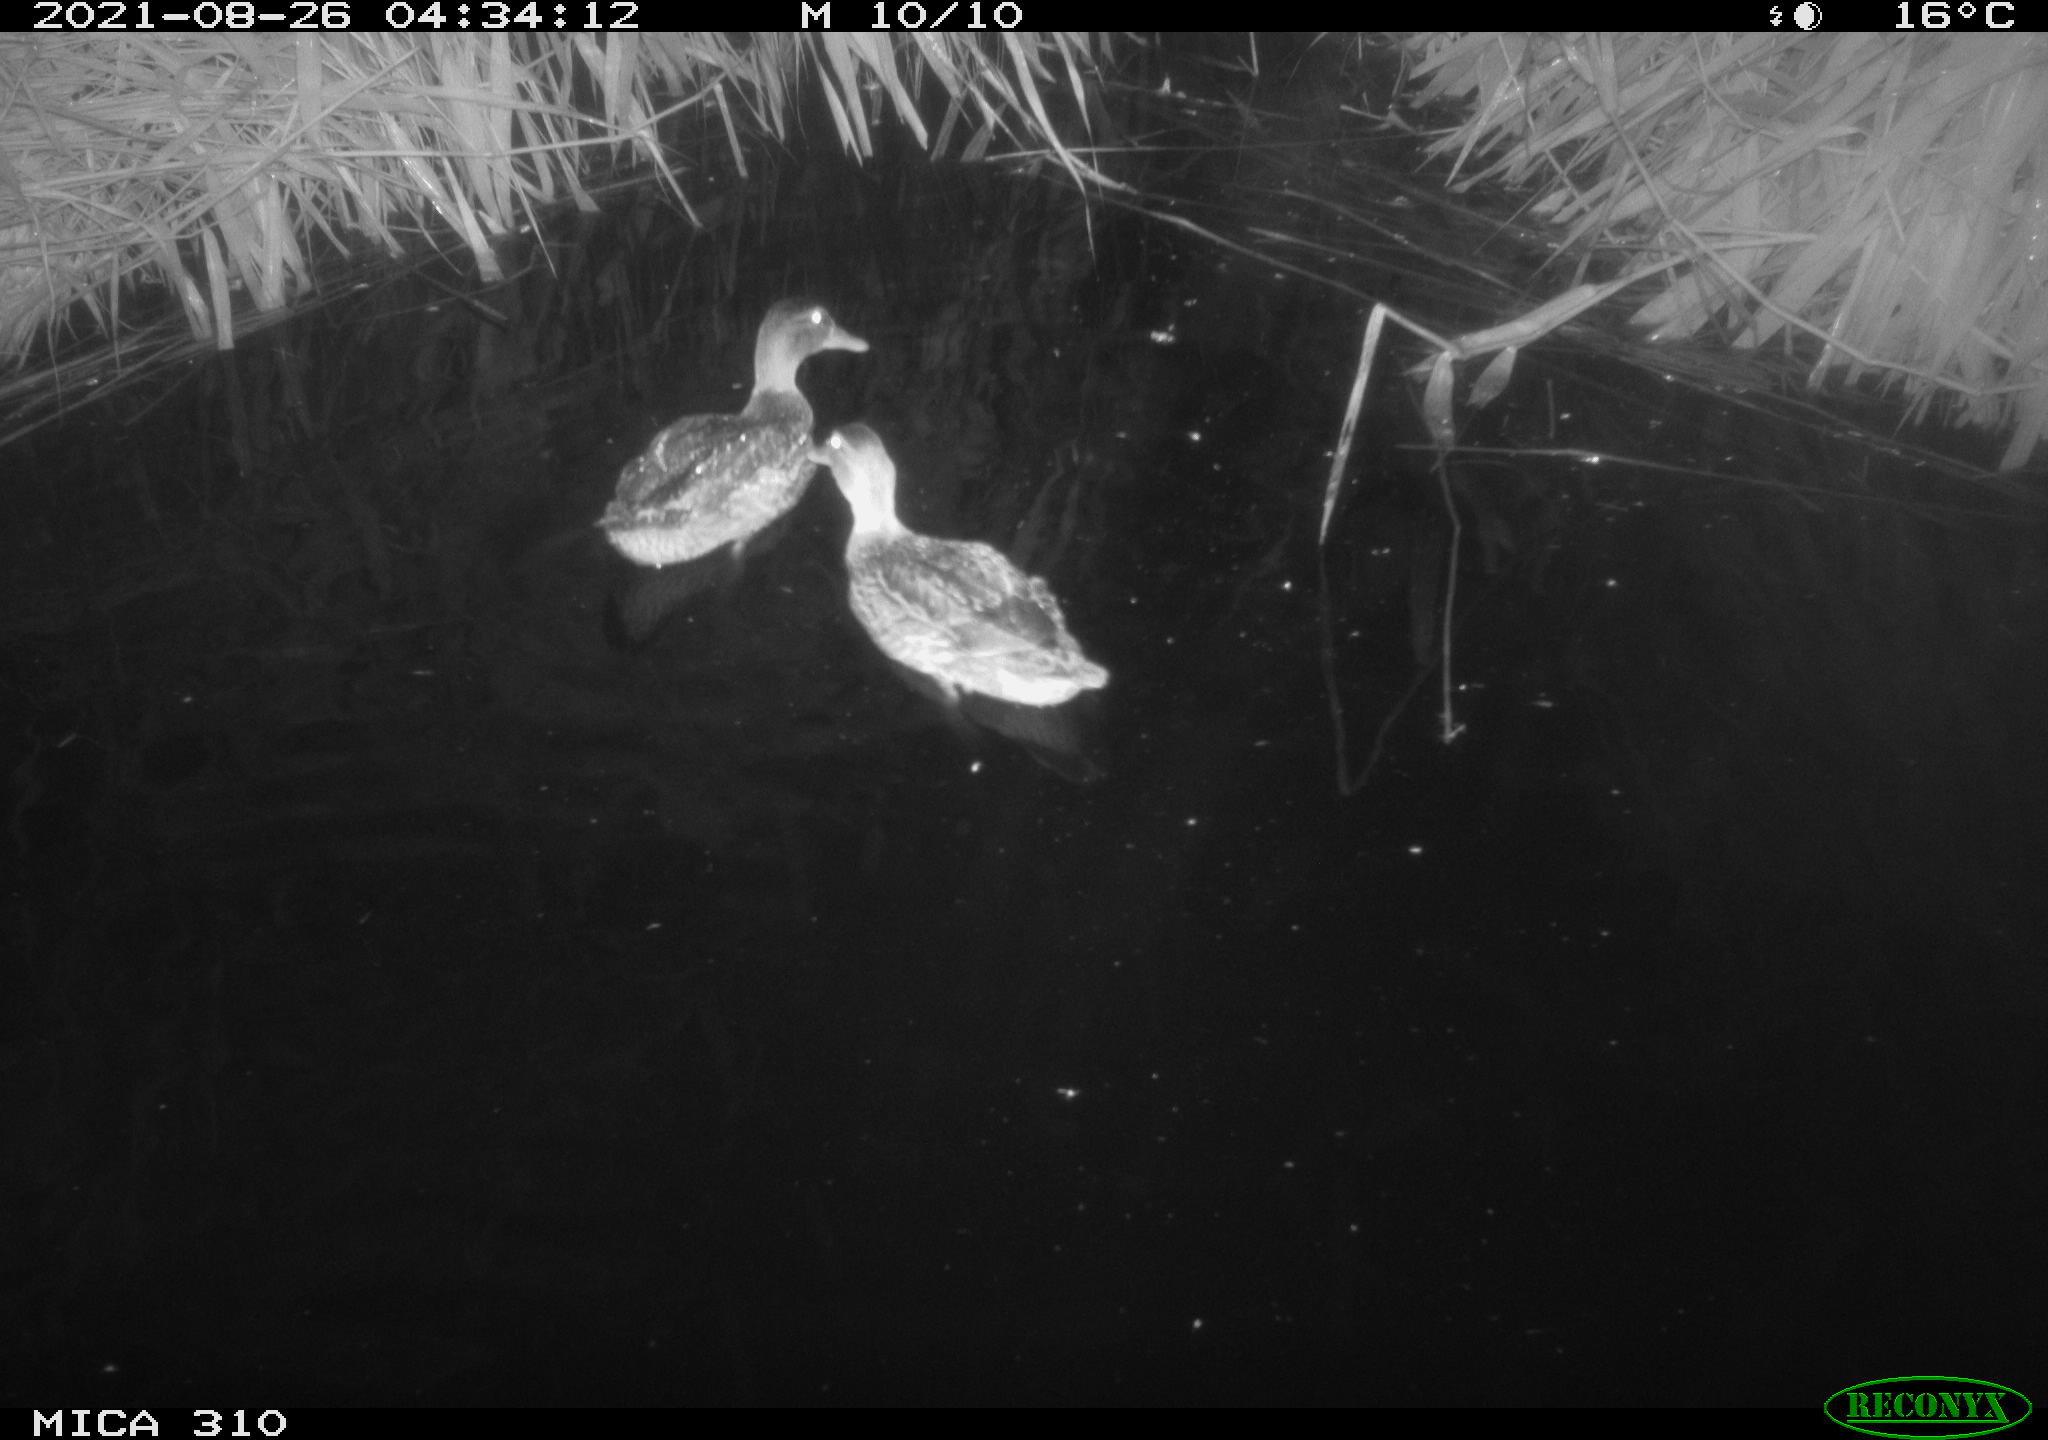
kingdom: Animalia
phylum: Chordata
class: Aves
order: Anseriformes
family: Anatidae
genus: Anas
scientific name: Anas platyrhynchos
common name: Mallard
